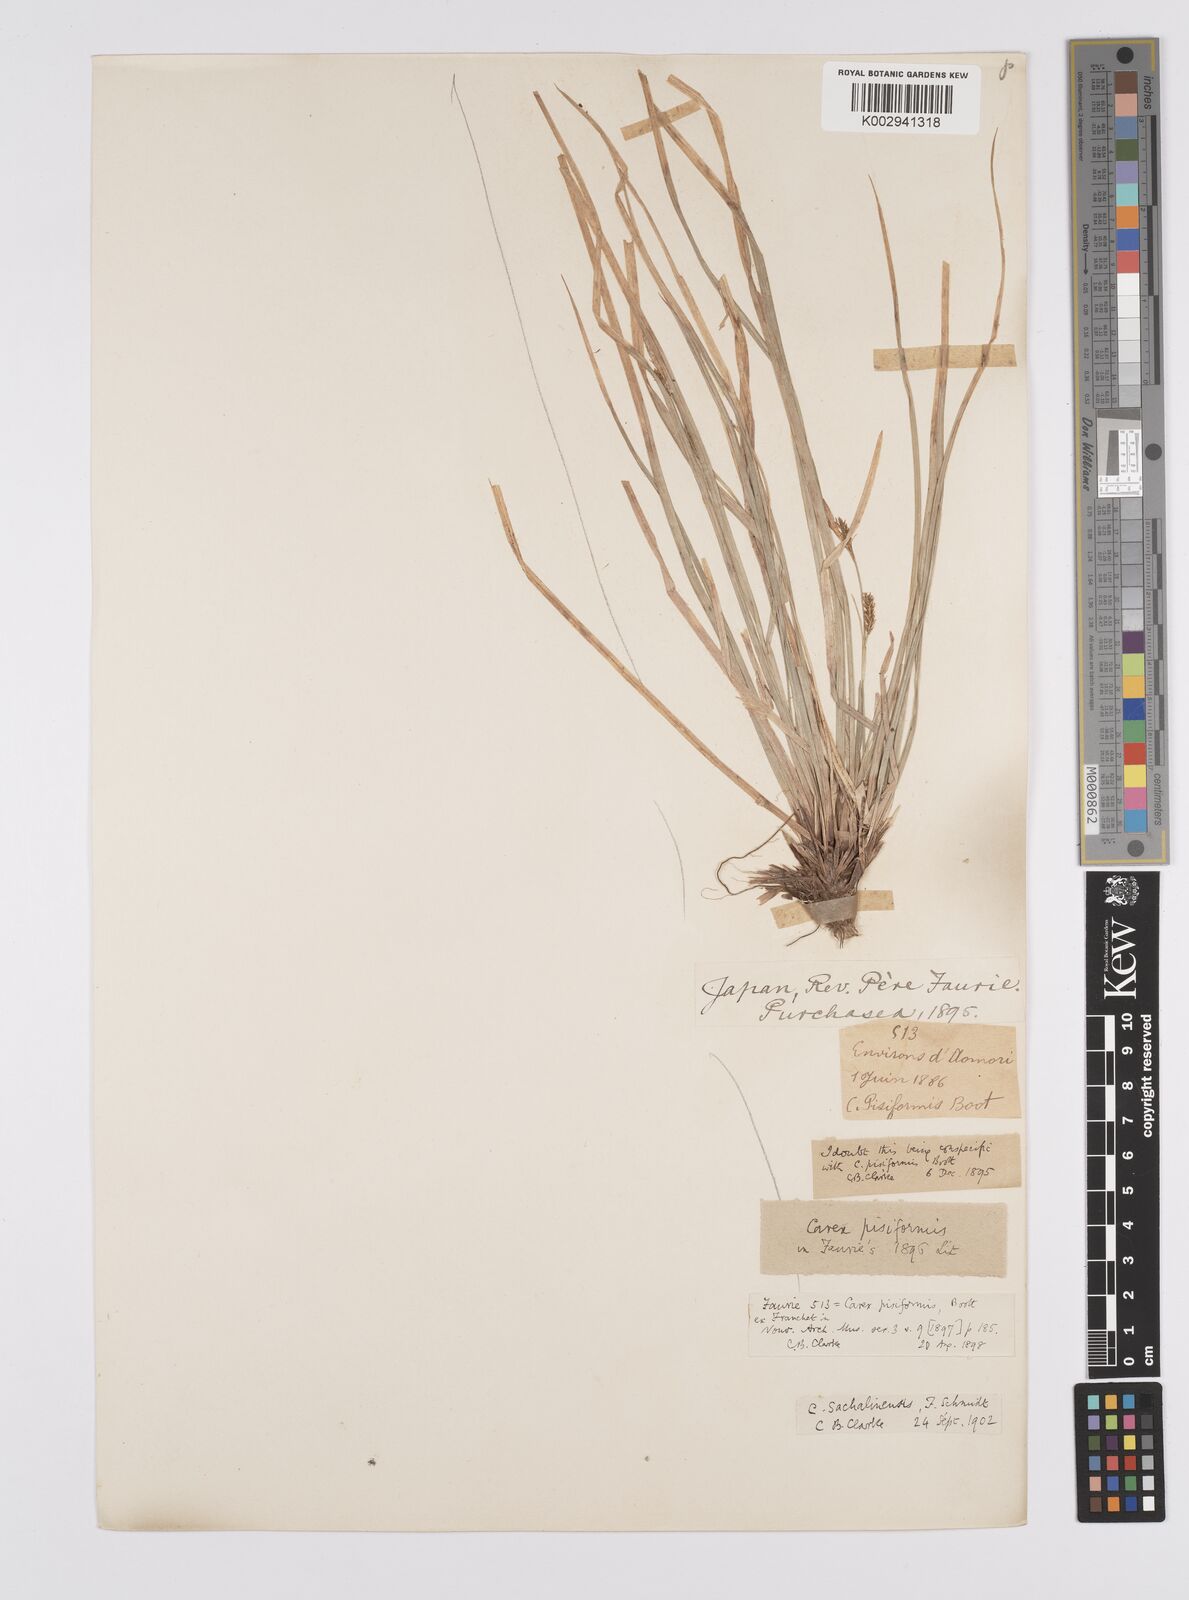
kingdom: Plantae
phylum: Tracheophyta
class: Liliopsida
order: Poales
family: Cyperaceae
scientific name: Cyperaceae
